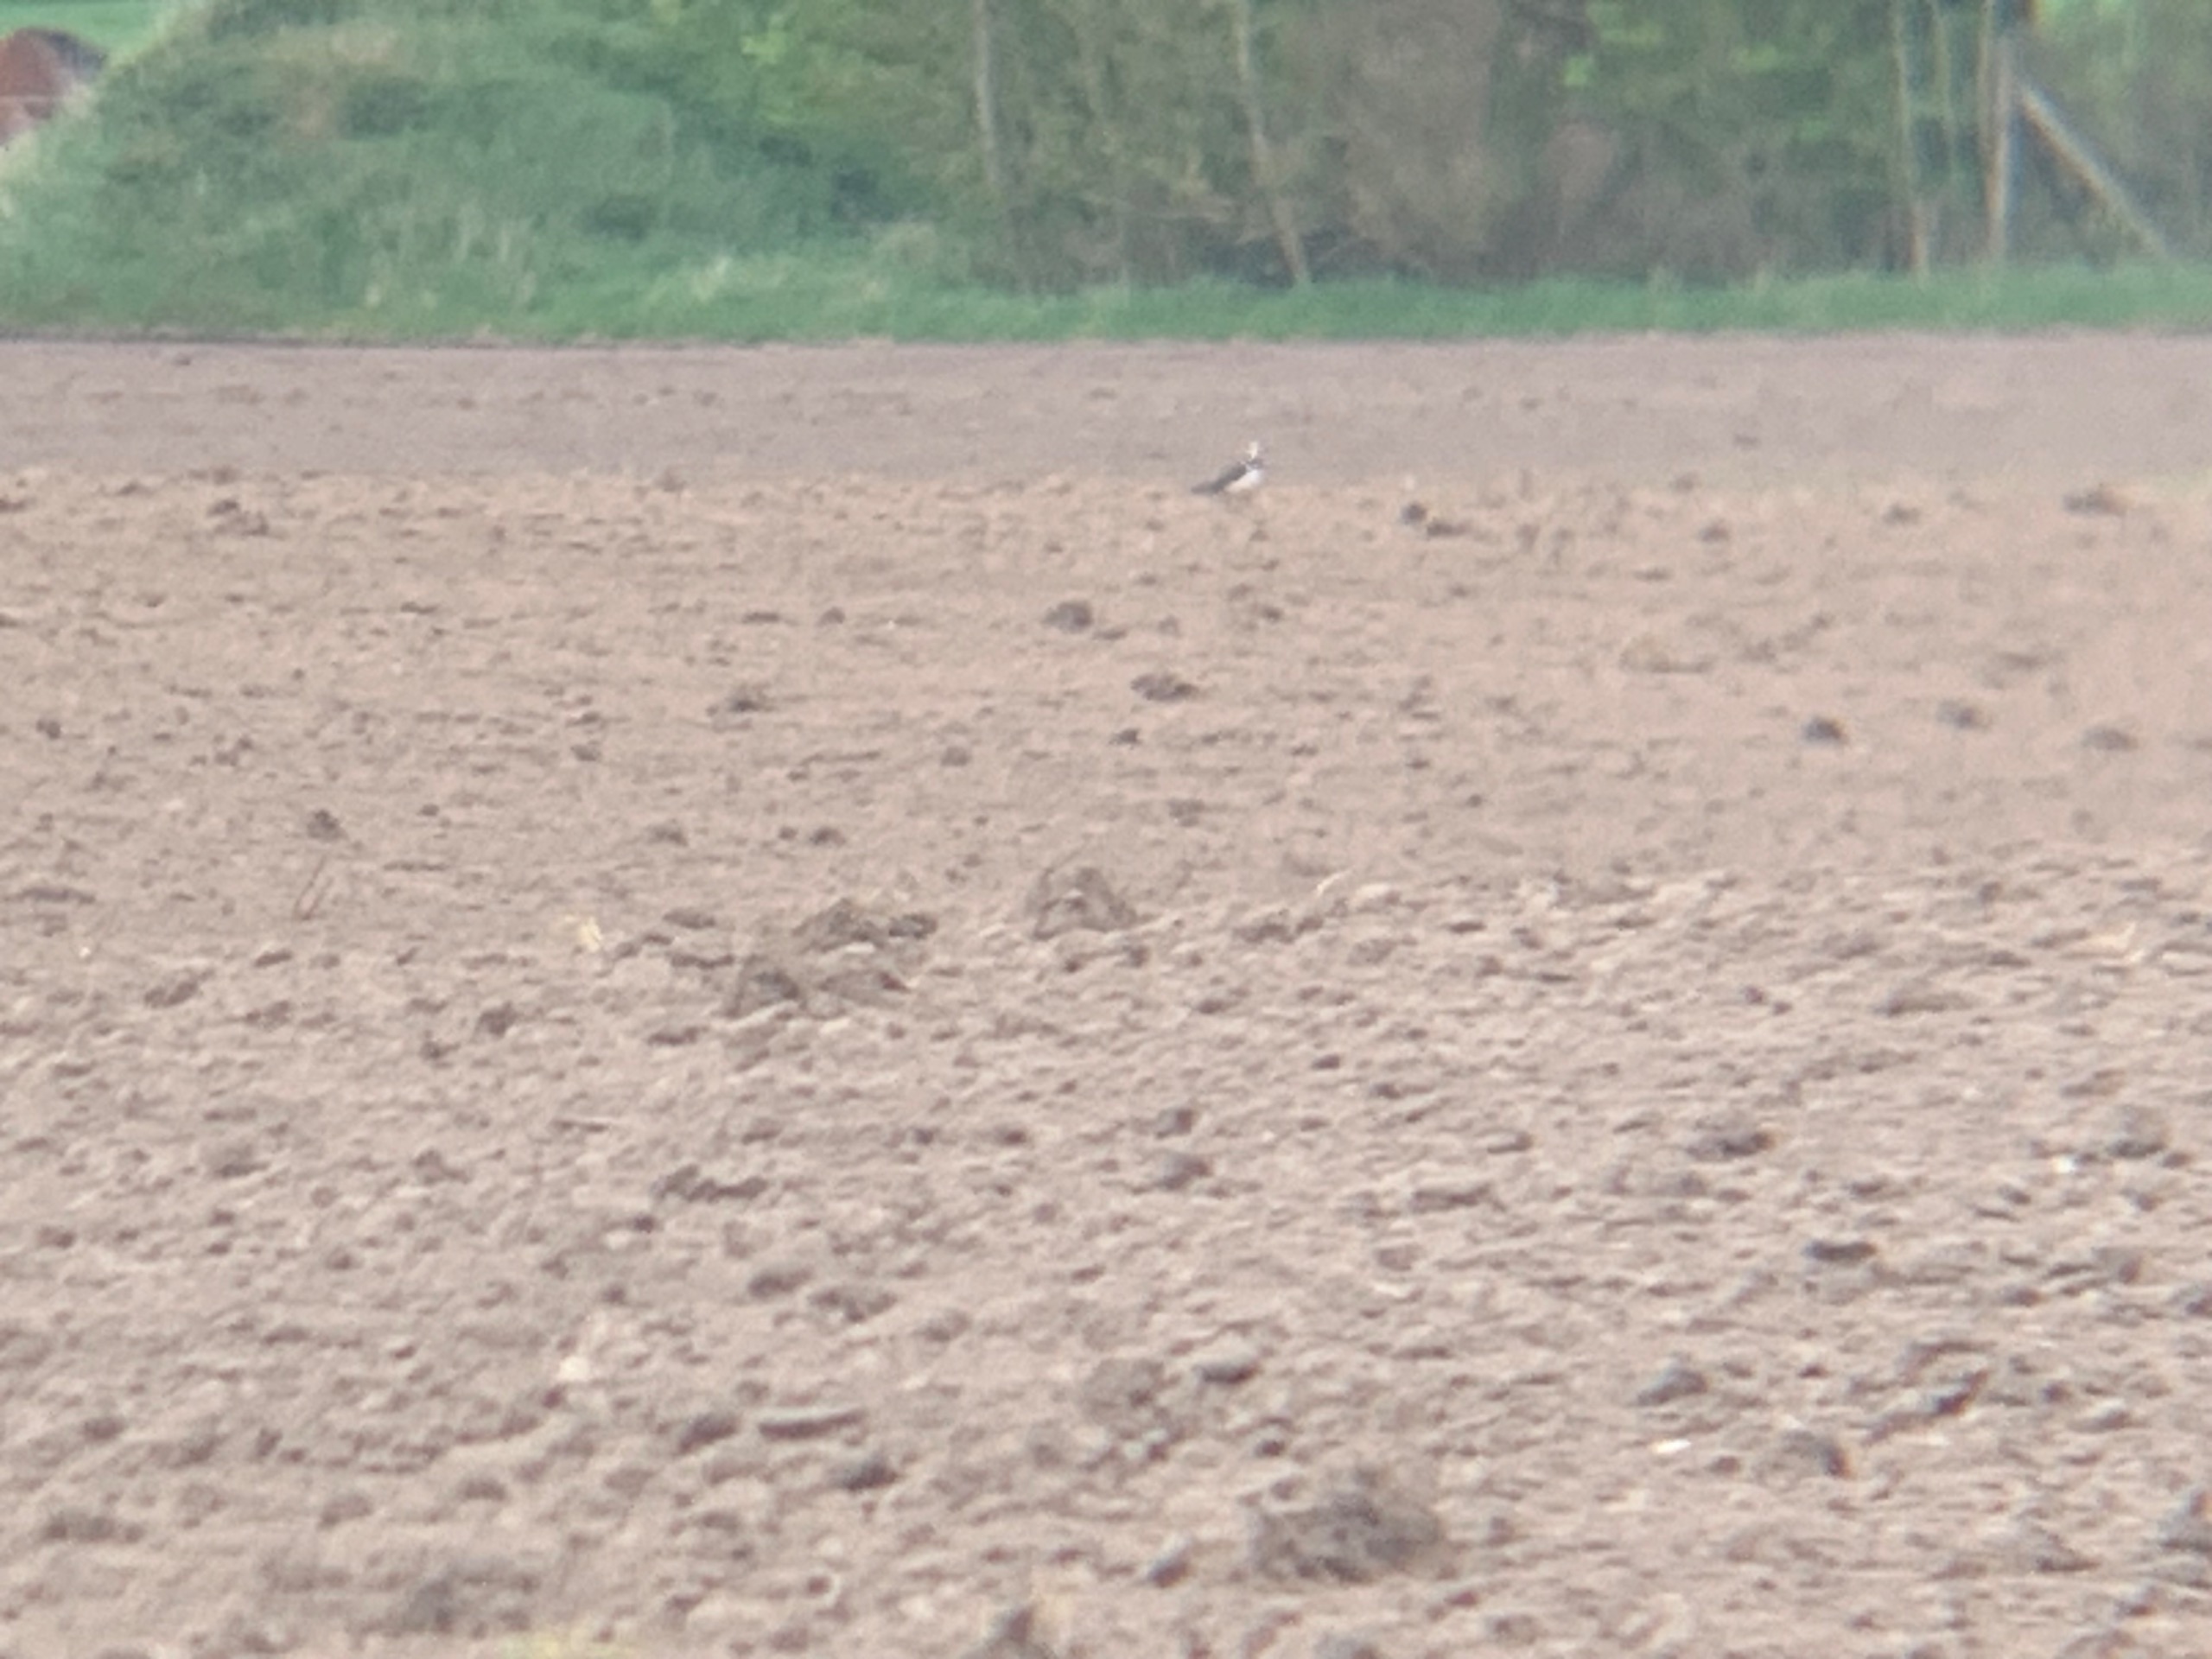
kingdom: Animalia
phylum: Chordata
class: Aves
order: Charadriiformes
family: Charadriidae
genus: Vanellus
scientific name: Vanellus vanellus
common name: Vibe
